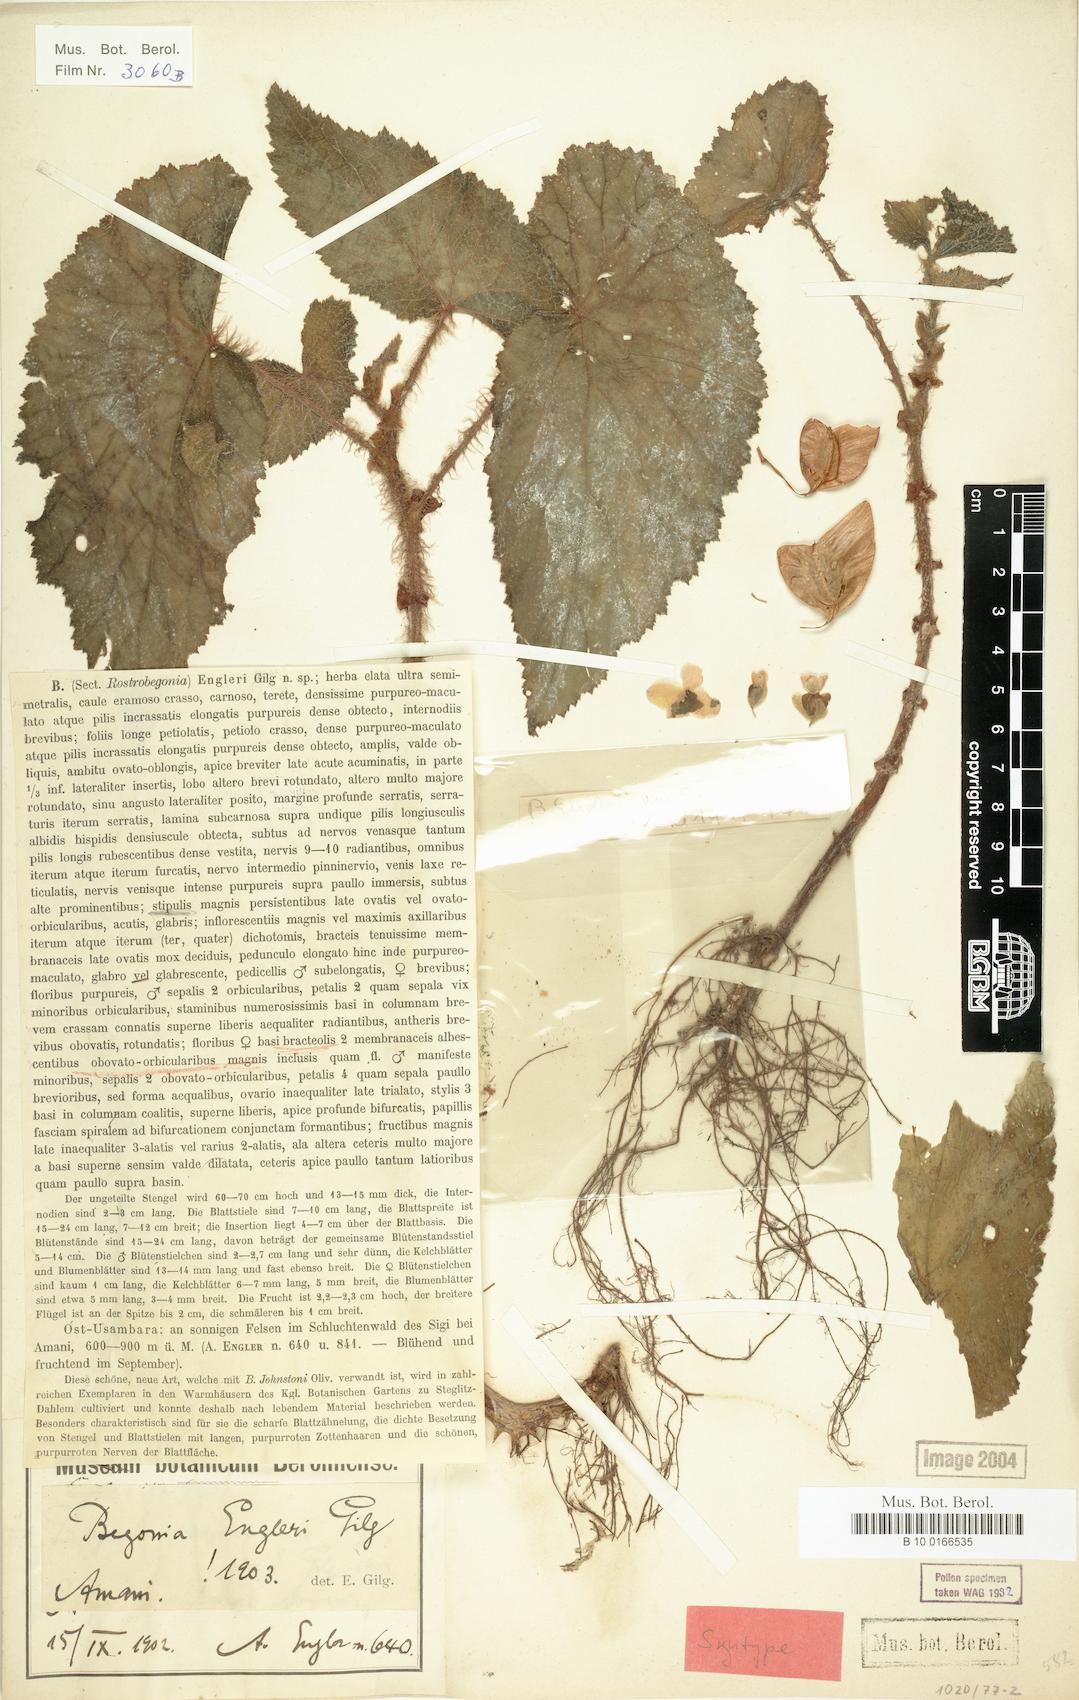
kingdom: Plantae
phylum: Tracheophyta
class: Magnoliopsida
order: Cucurbitales
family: Begoniaceae
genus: Begonia
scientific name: Begonia engleri
